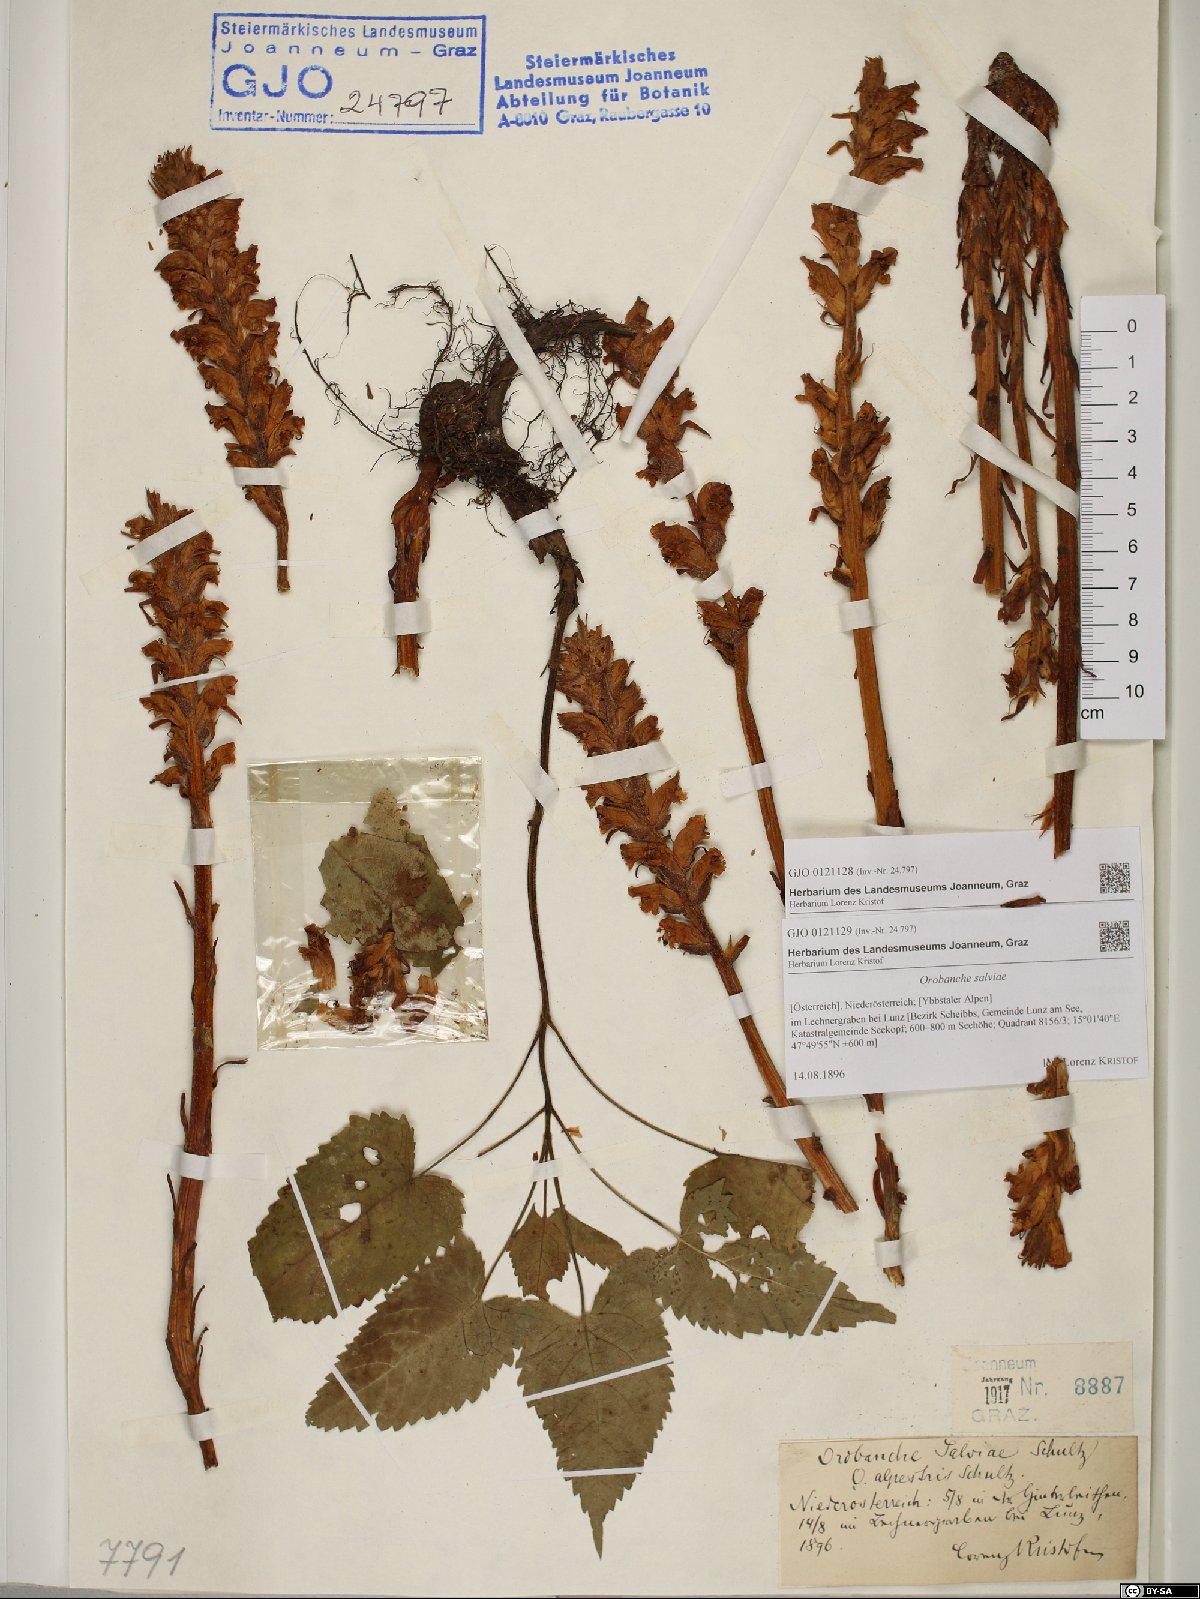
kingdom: Plantae
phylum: Tracheophyta
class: Magnoliopsida
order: Lamiales
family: Orobanchaceae
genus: Orobanche
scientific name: Orobanche salviae
